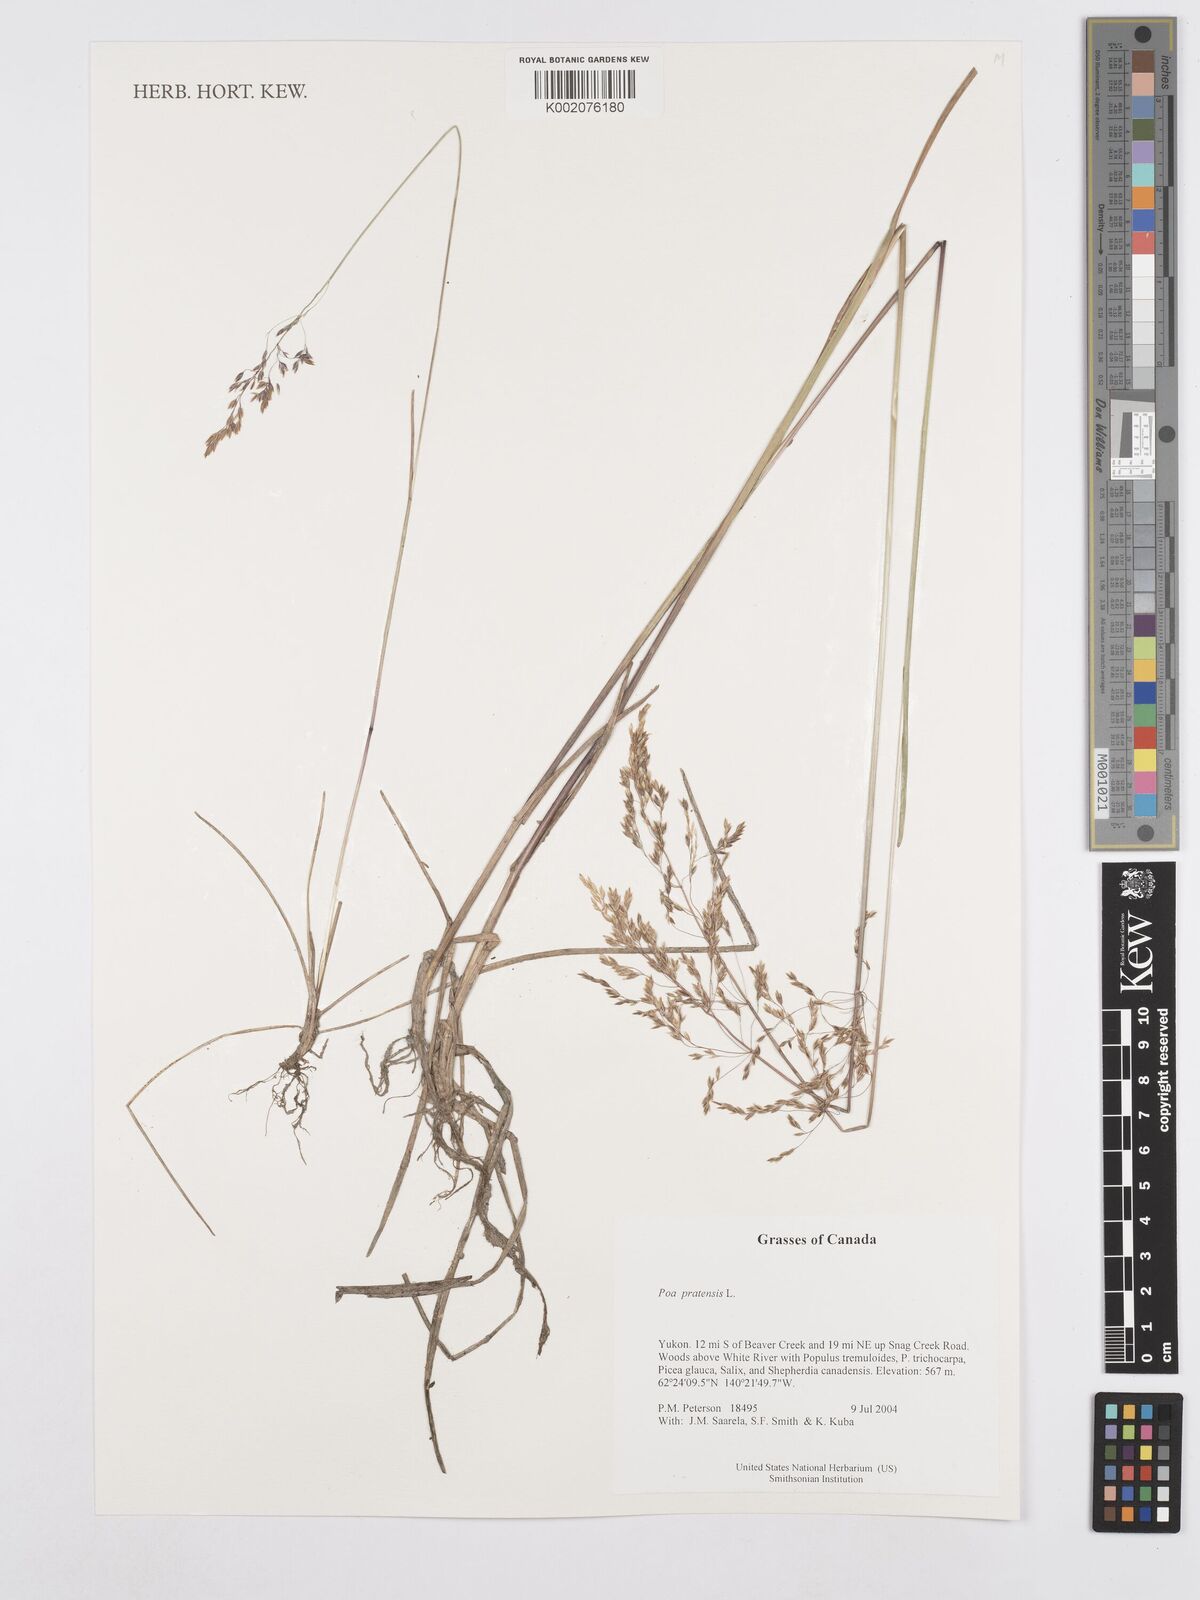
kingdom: Plantae
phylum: Tracheophyta
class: Liliopsida
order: Poales
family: Poaceae
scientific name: Poaceae
